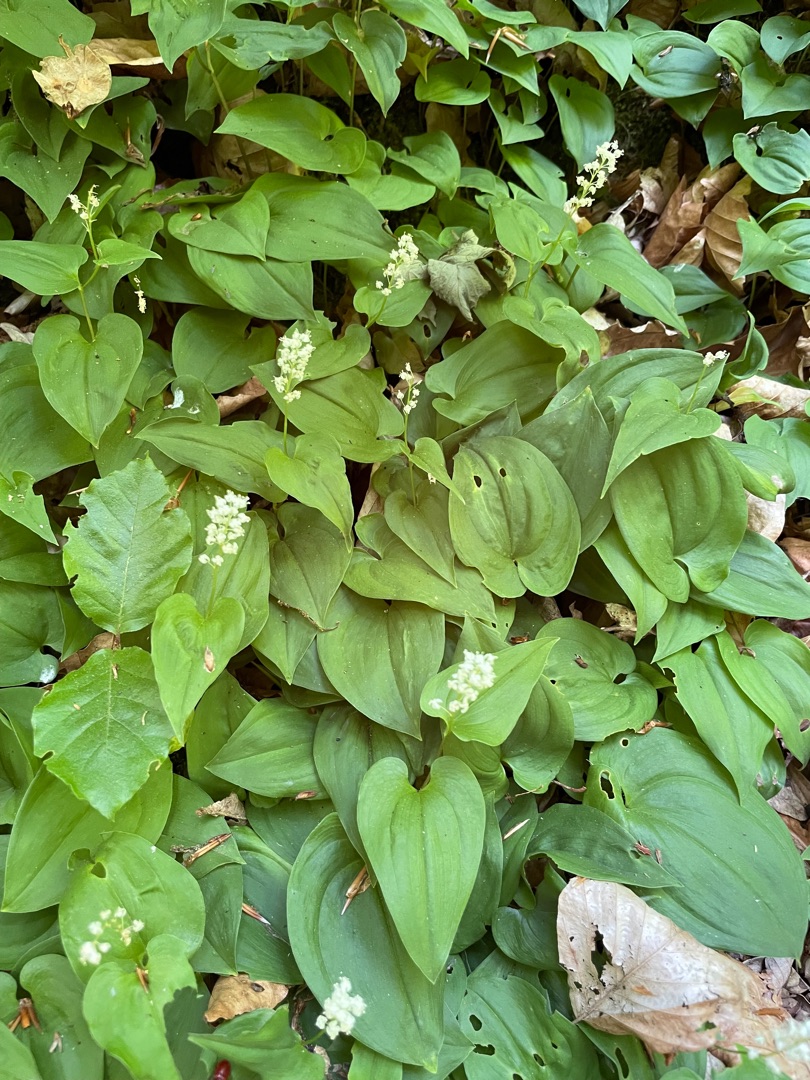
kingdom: Plantae
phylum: Tracheophyta
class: Liliopsida
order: Asparagales
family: Asparagaceae
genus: Maianthemum
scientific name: Maianthemum bifolium
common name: Majblomst
